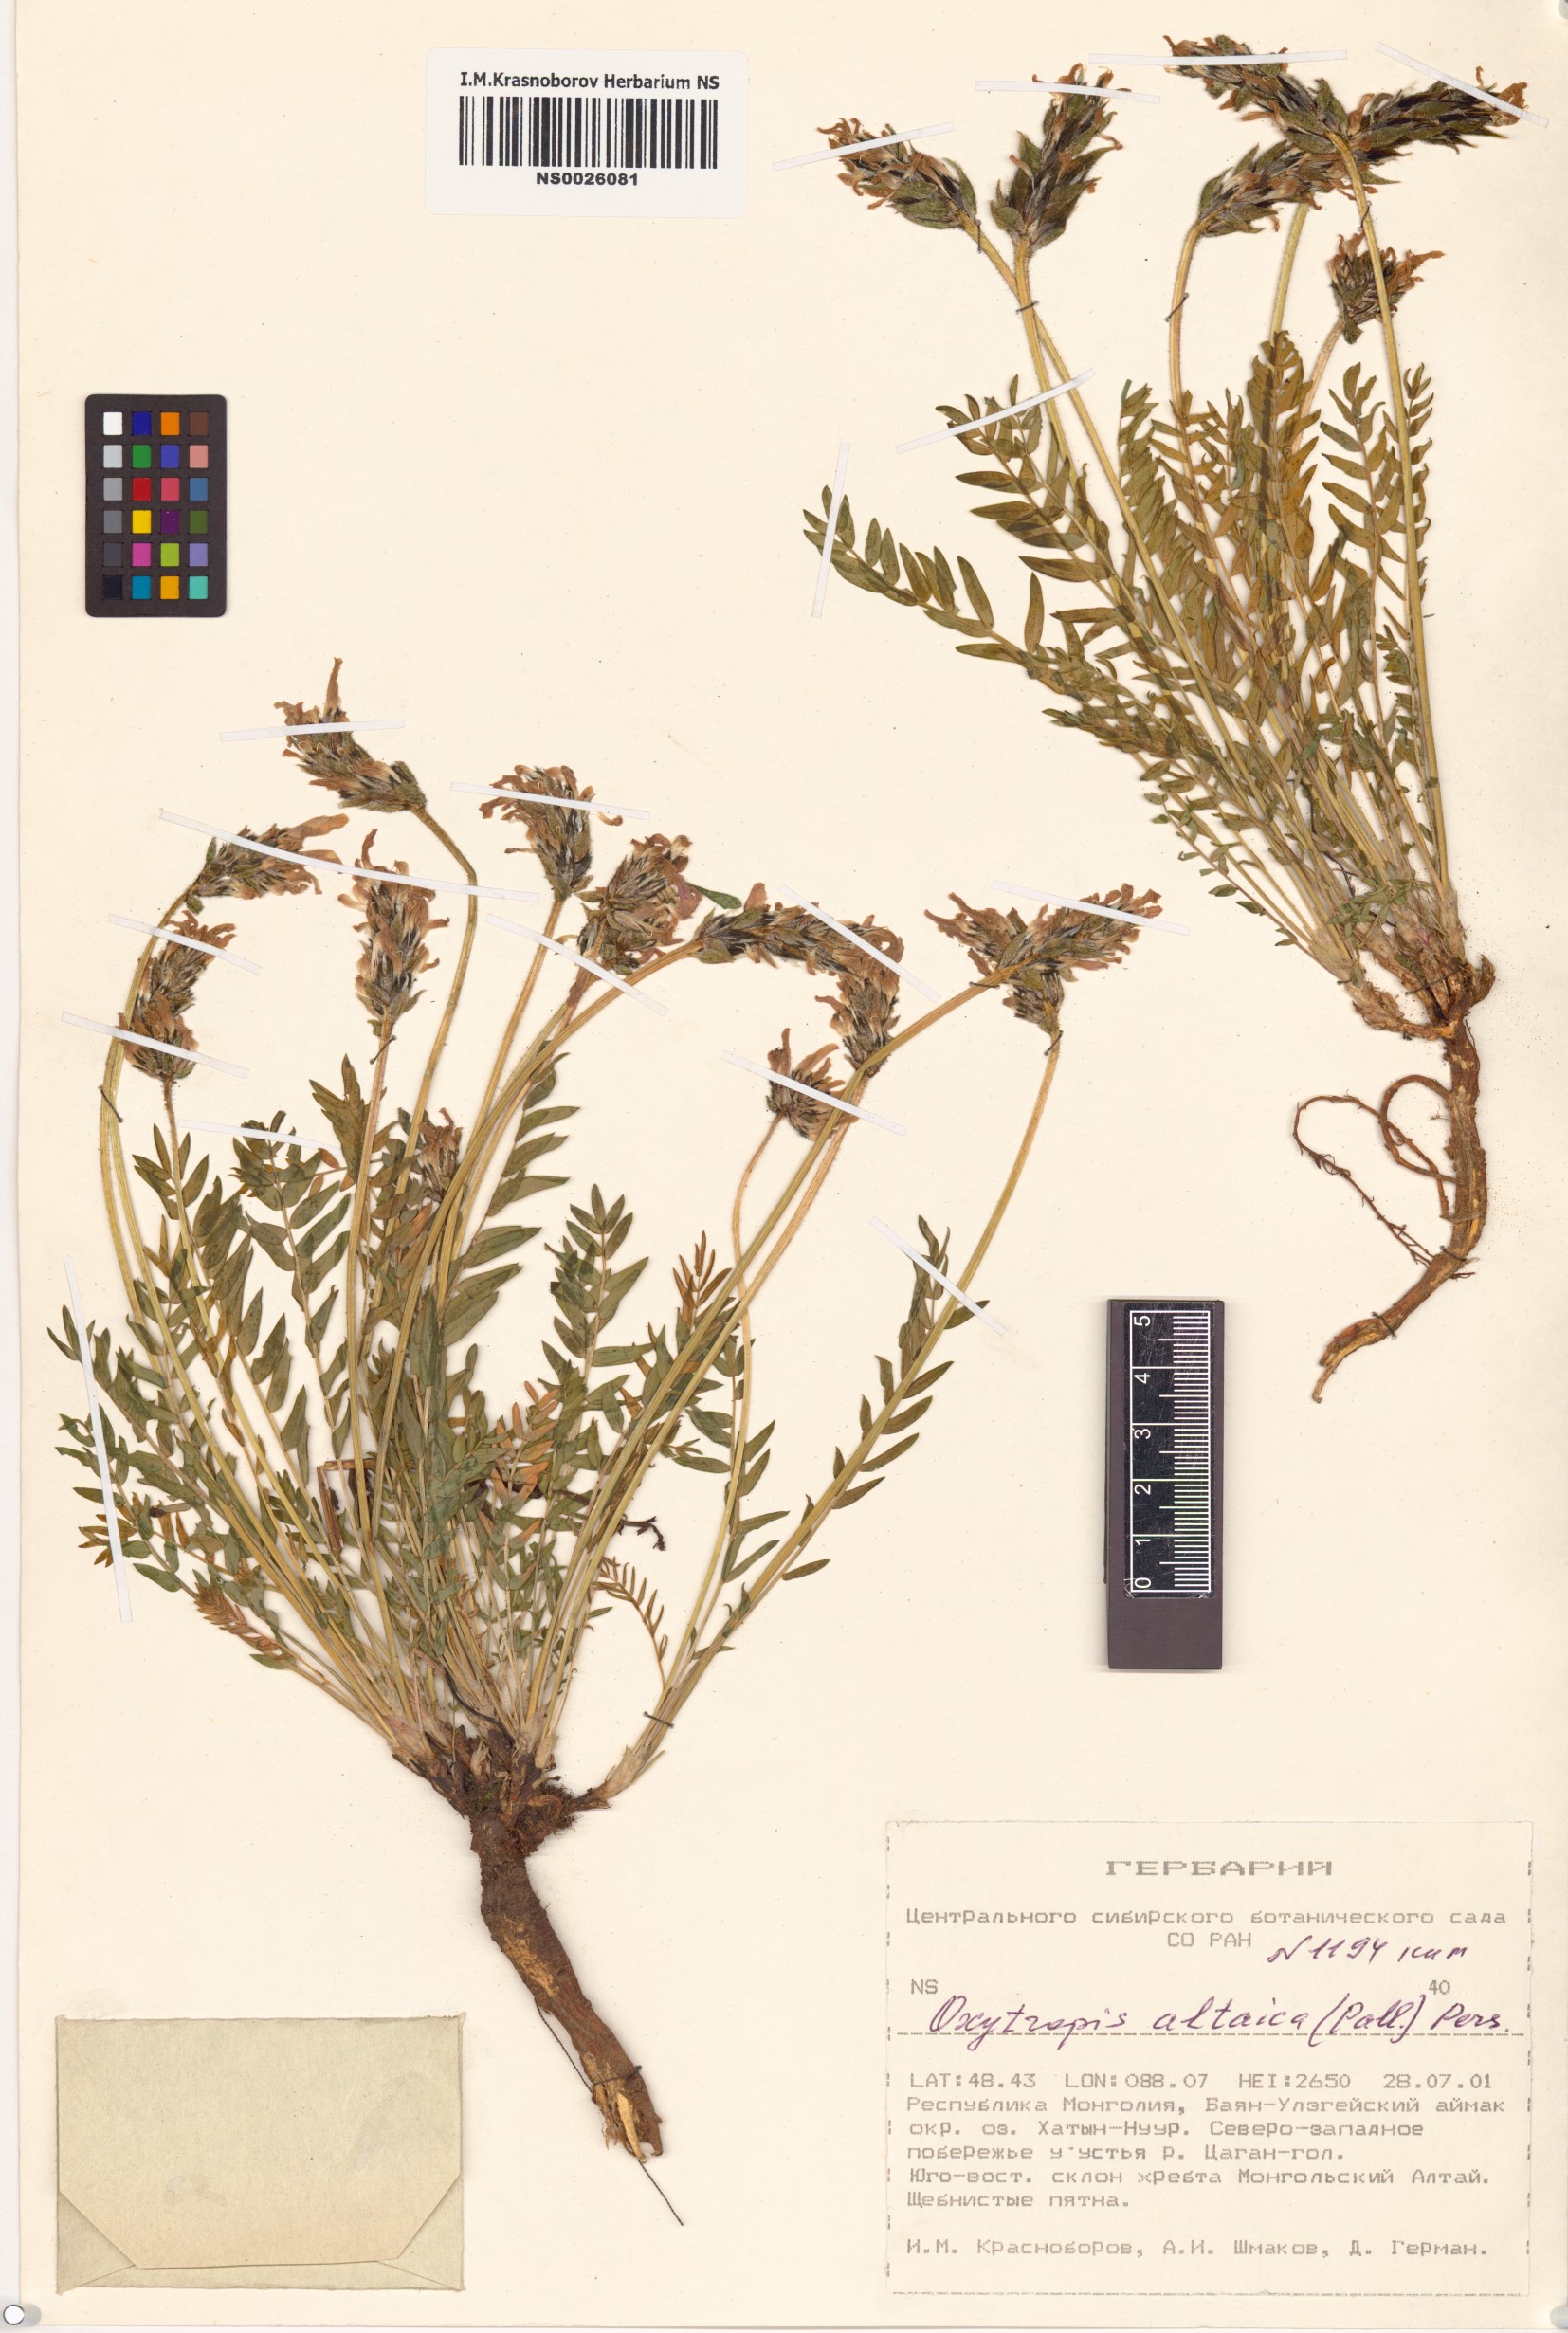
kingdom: Plantae
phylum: Tracheophyta
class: Magnoliopsida
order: Fabales
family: Fabaceae
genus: Oxytropis
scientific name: Oxytropis altaica
